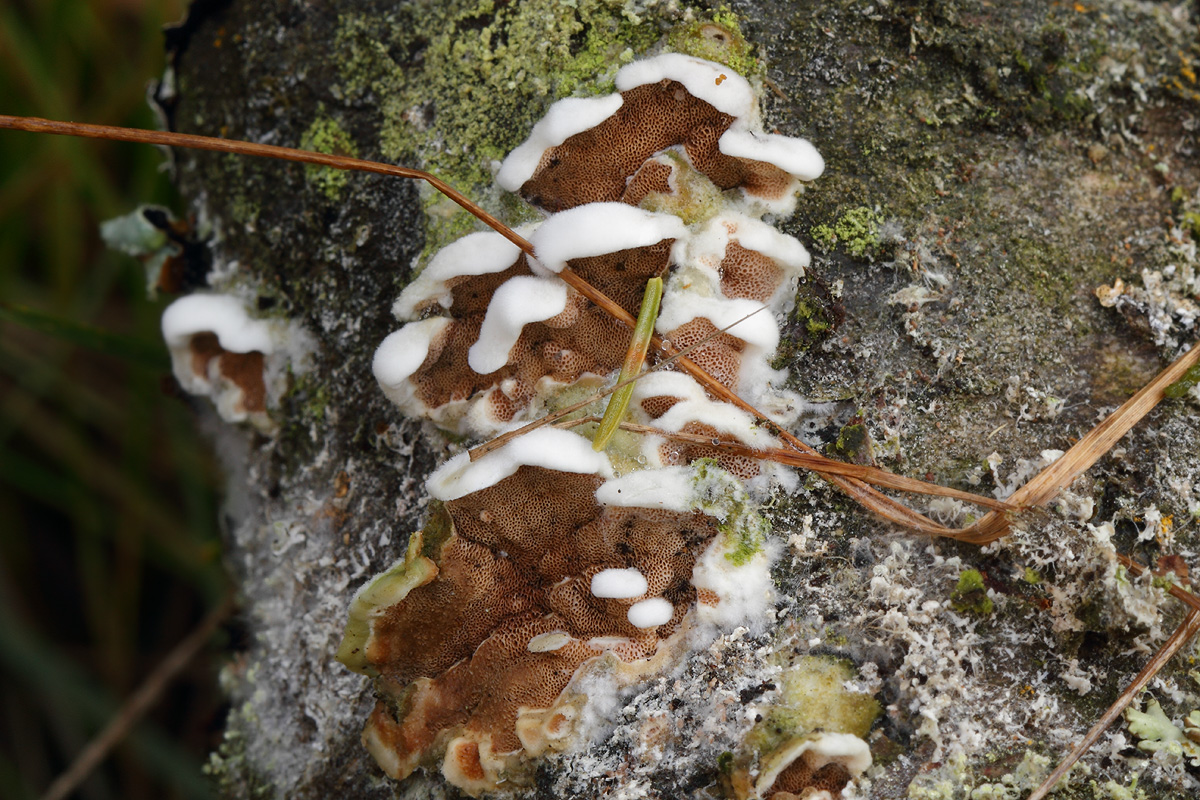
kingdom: Fungi
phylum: Basidiomycota
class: Agaricomycetes
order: Polyporales
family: Irpicaceae
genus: Vitreoporus
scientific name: Vitreoporus dichrous
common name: tofarvet foldporesvamp
